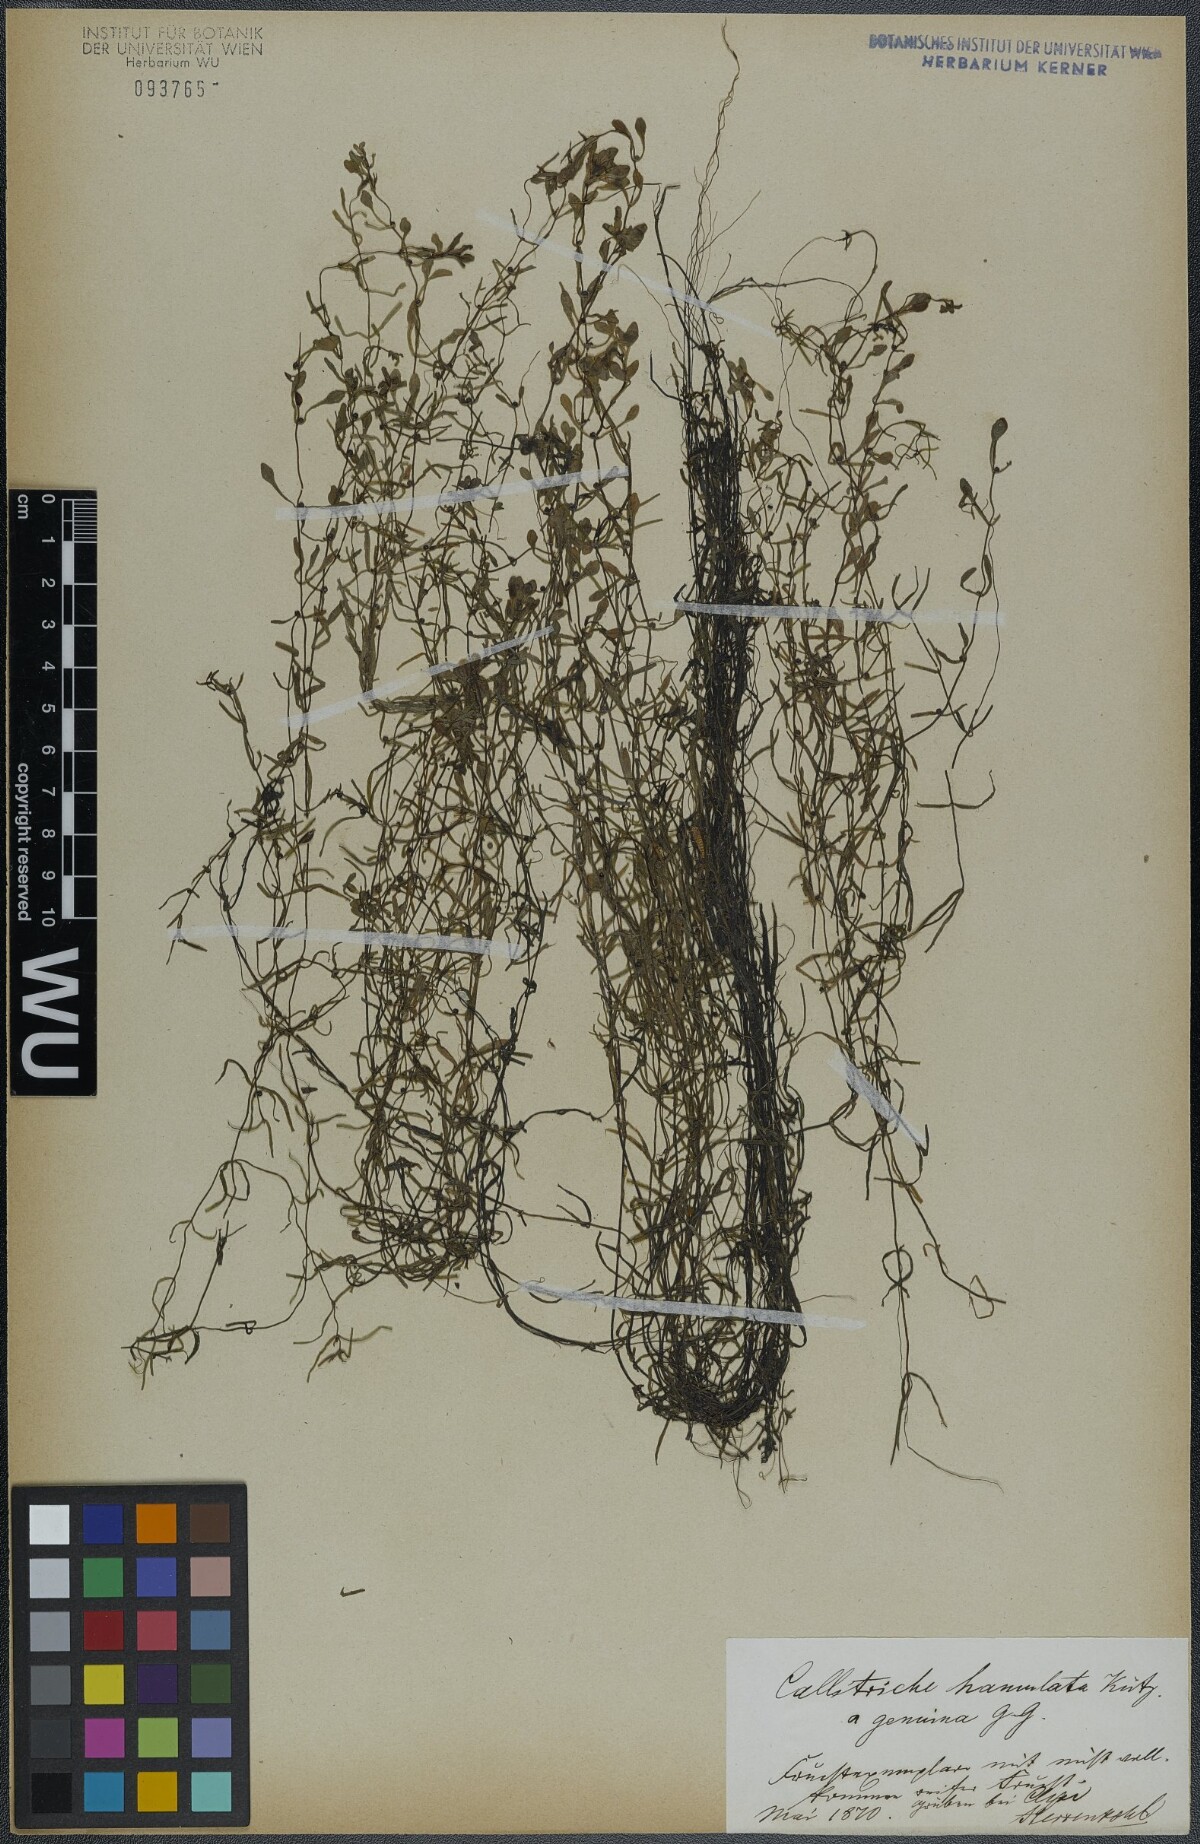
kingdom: Plantae
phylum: Tracheophyta
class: Magnoliopsida
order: Lamiales
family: Plantaginaceae
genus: Callitriche
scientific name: Callitriche hamulata
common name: Intermediate water-starwort
